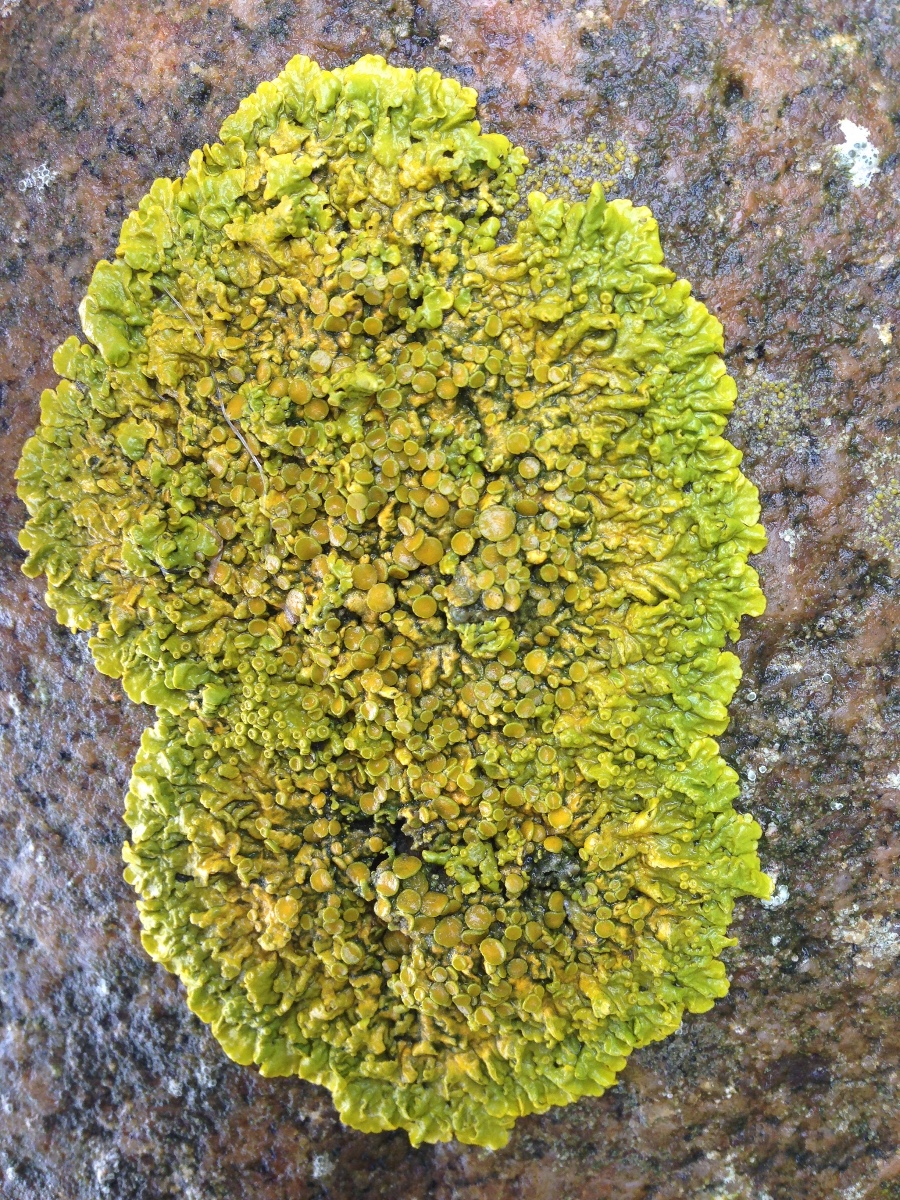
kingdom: Fungi
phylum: Ascomycota
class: Lecanoromycetes
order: Teloschistales
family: Teloschistaceae
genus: Xanthoria
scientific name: Xanthoria parietina
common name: almindelig væggelav
